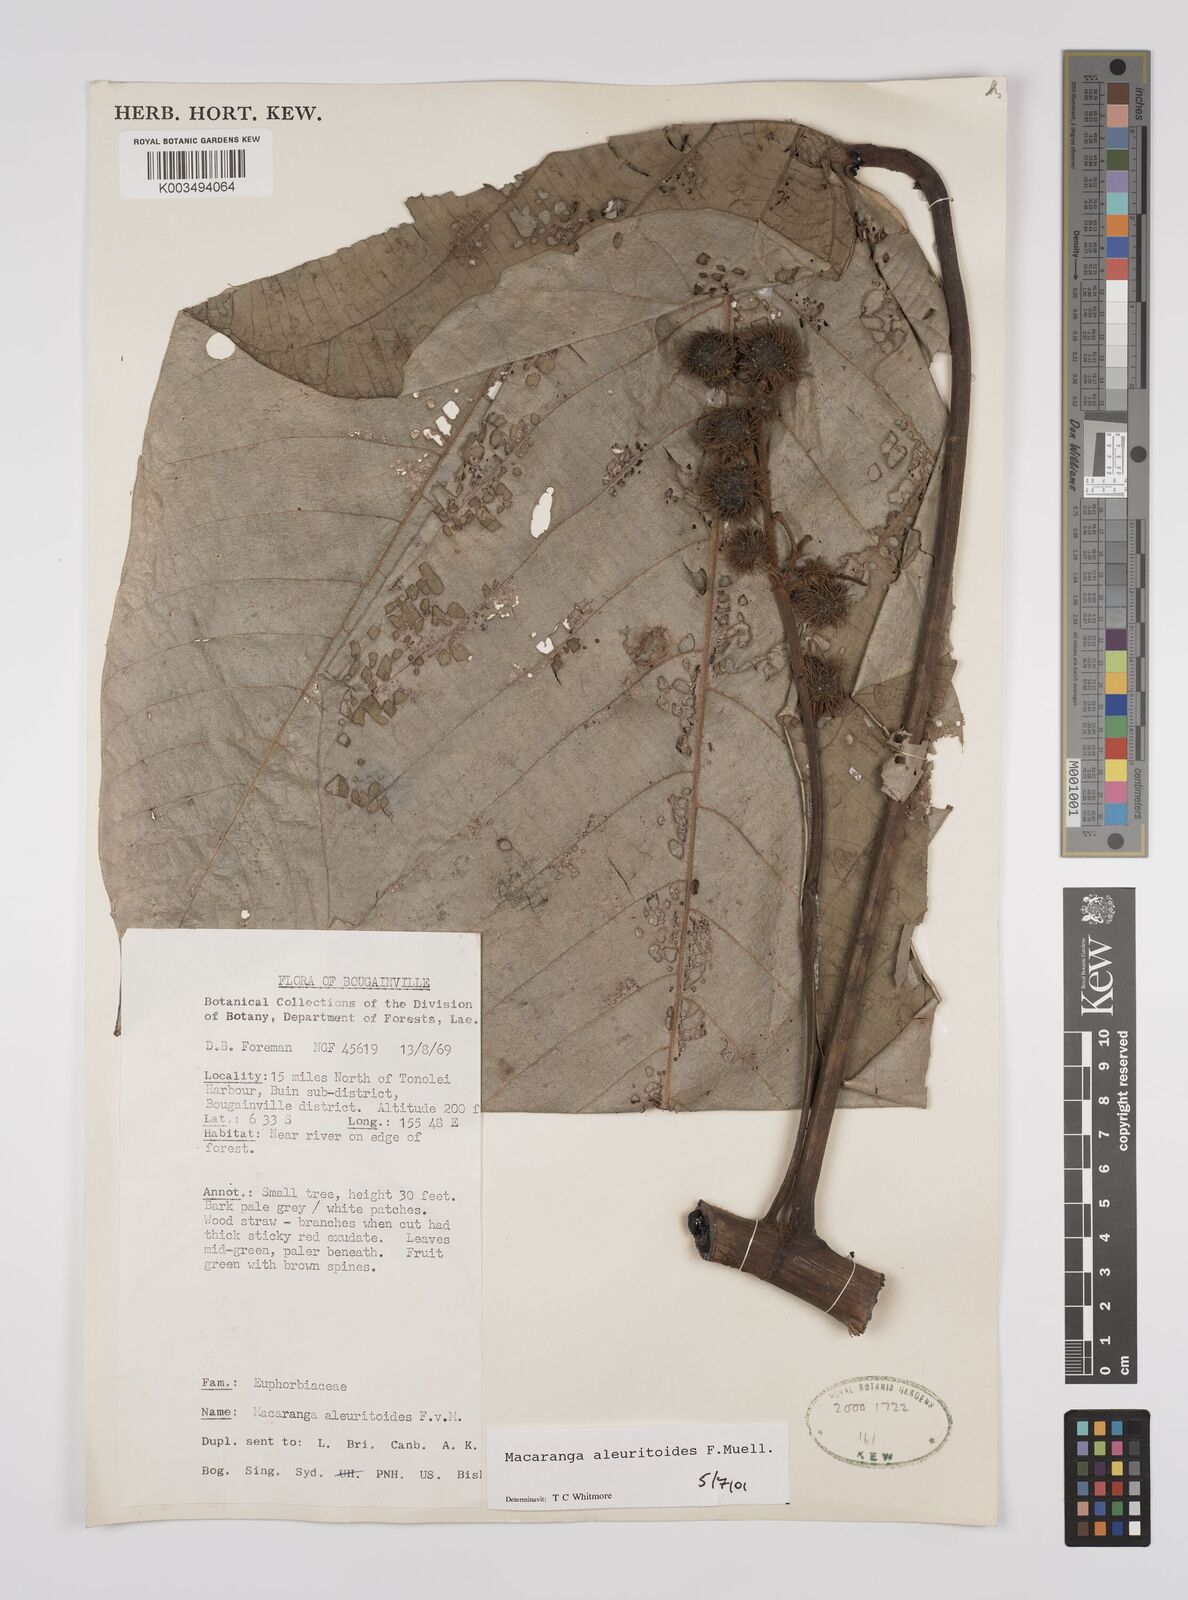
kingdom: Plantae
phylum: Tracheophyta
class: Magnoliopsida
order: Malpighiales
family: Euphorbiaceae
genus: Macaranga
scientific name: Macaranga aleuritoides
